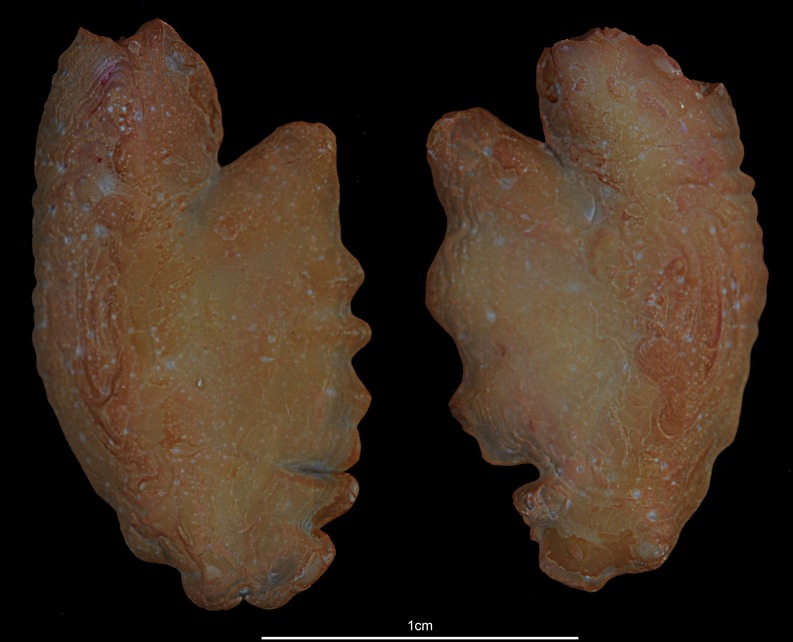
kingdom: Animalia
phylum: Chordata
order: Scorpaeniformes
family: Sebastidae
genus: Helicolenus
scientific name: Helicolenus dactylopterus
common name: Blackbelly rosefish
